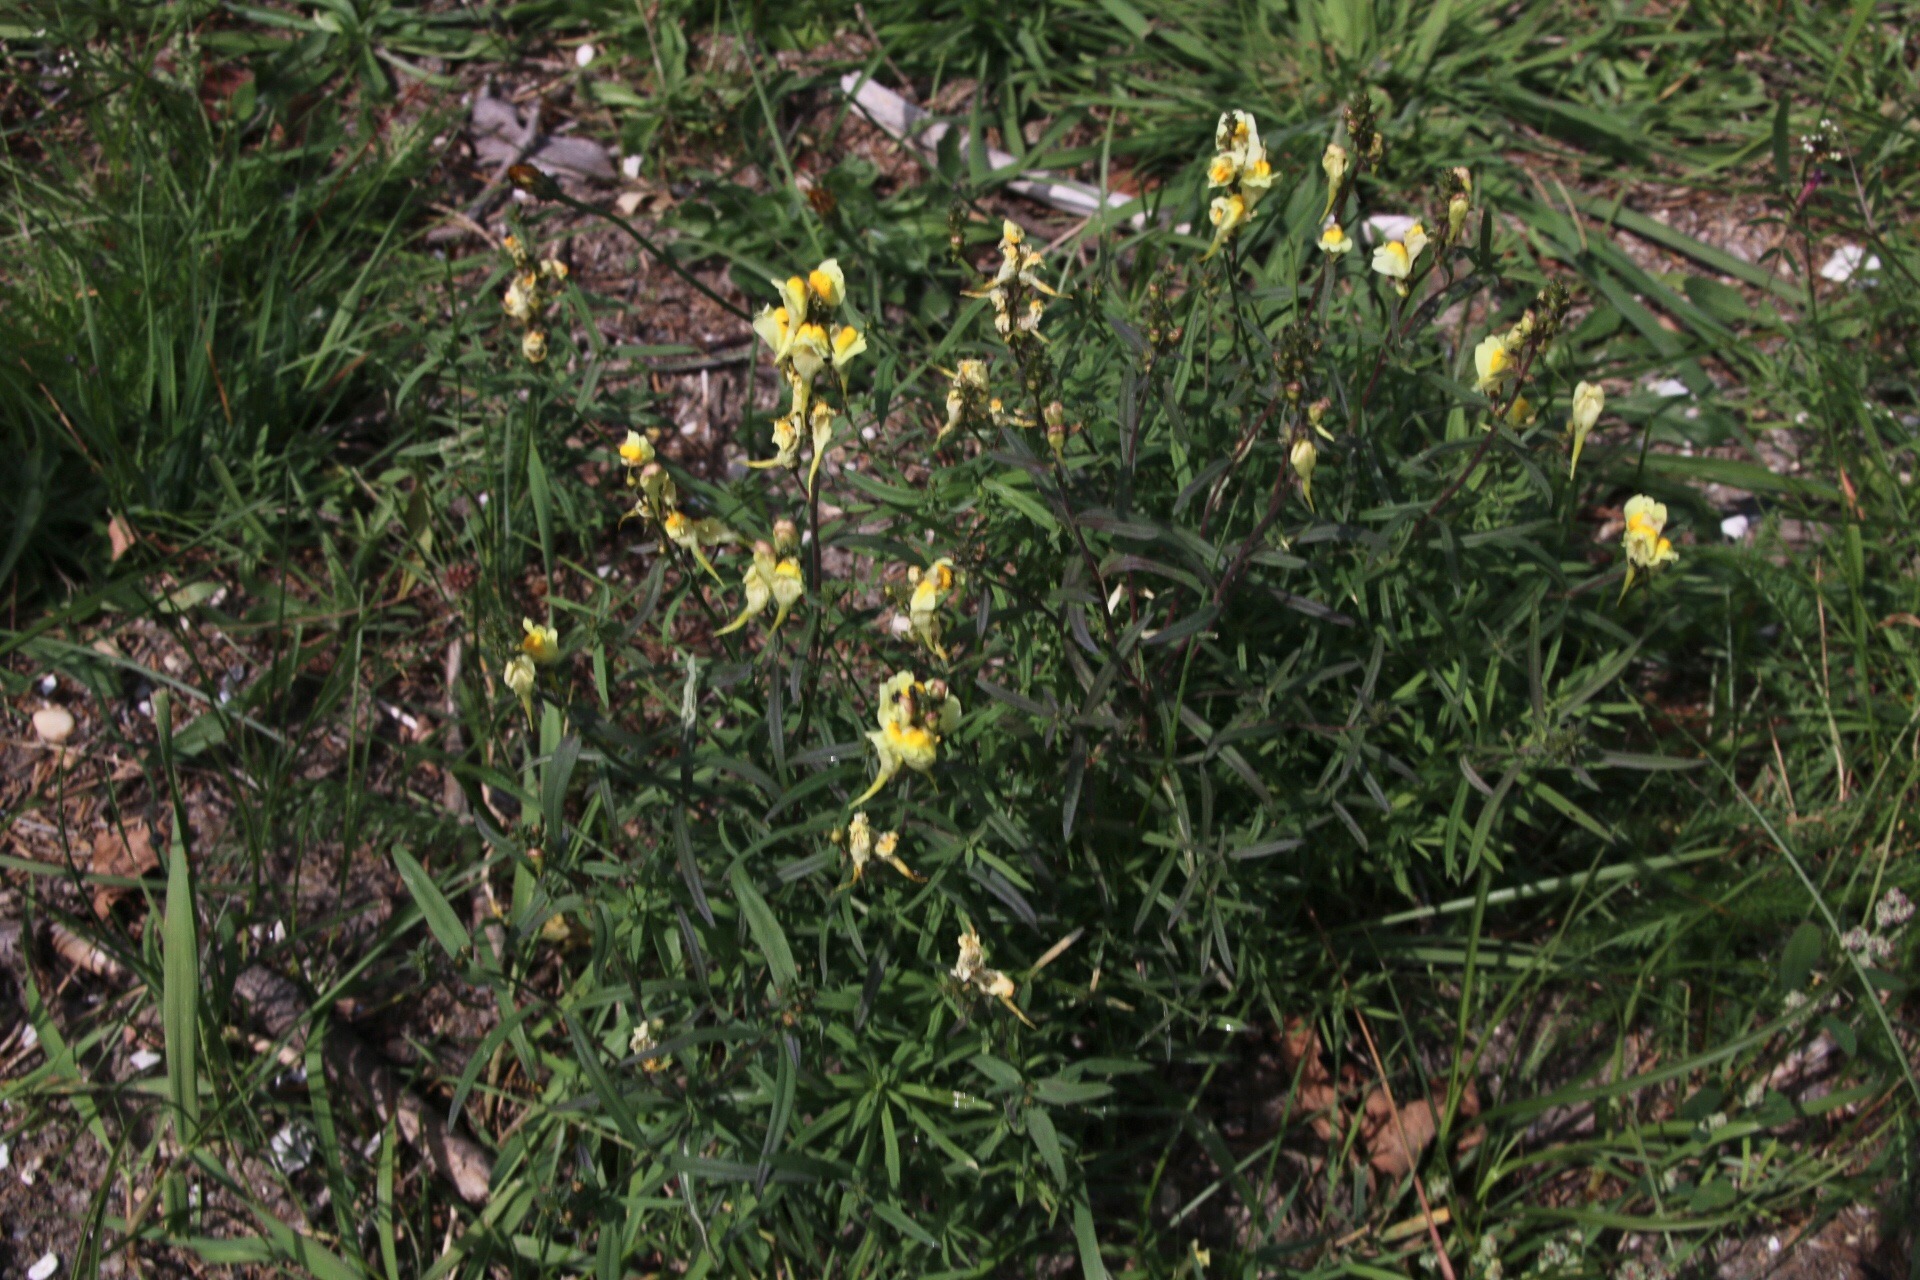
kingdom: Plantae
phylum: Tracheophyta
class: Magnoliopsida
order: Lamiales
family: Plantaginaceae
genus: Linaria
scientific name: Linaria vulgaris
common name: Almindelig torskemund
